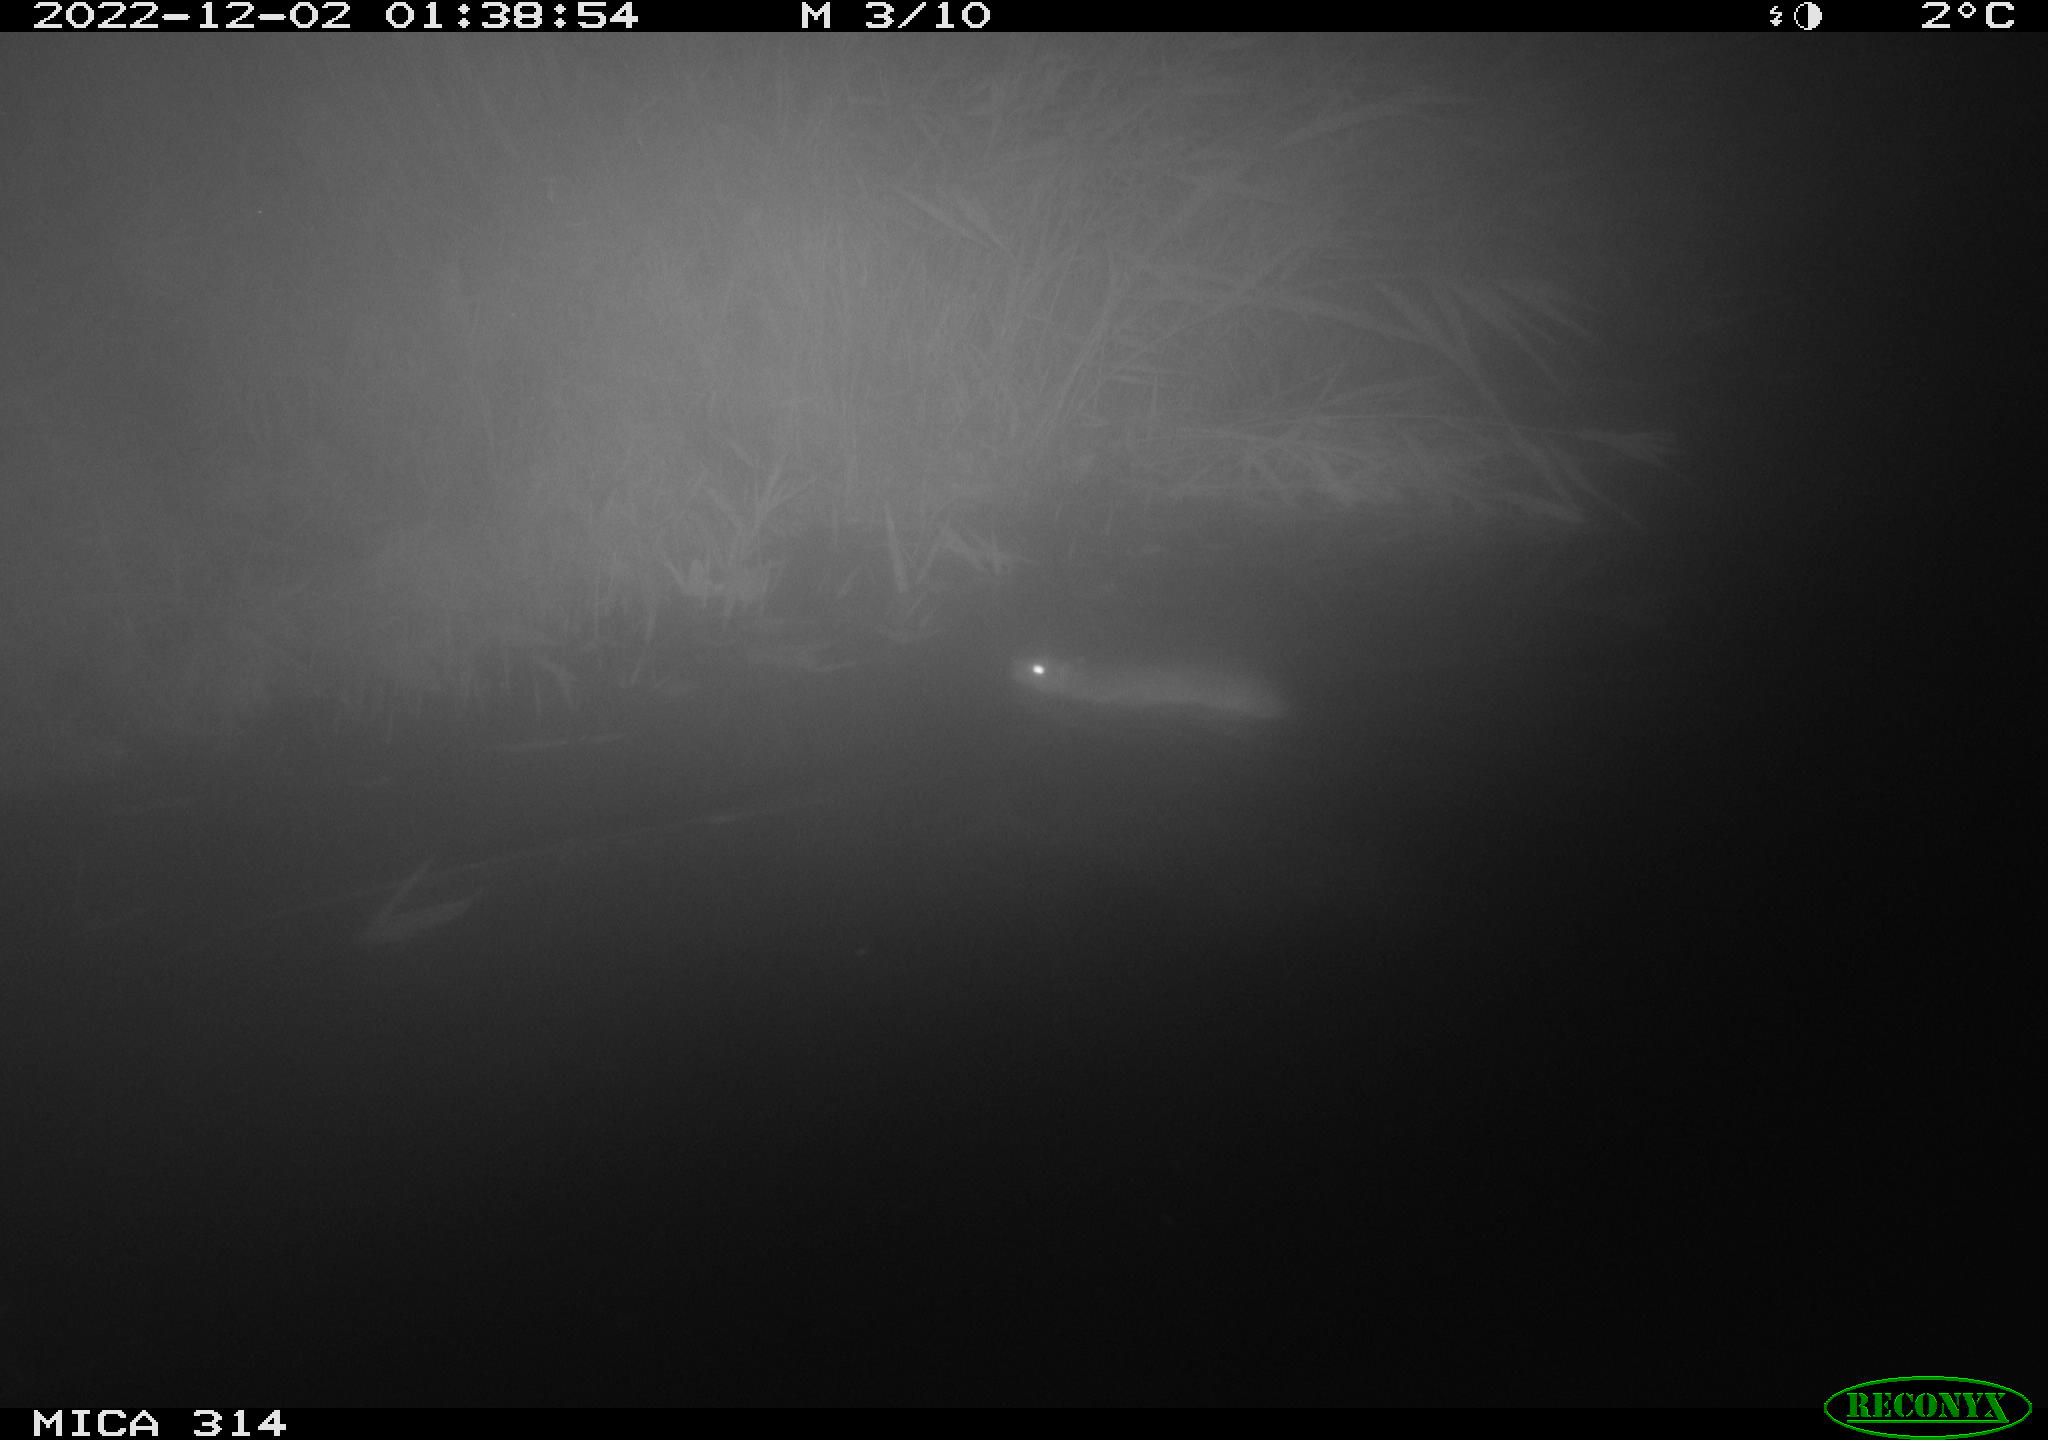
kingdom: Animalia
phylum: Chordata
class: Mammalia
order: Rodentia
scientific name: Rodentia
